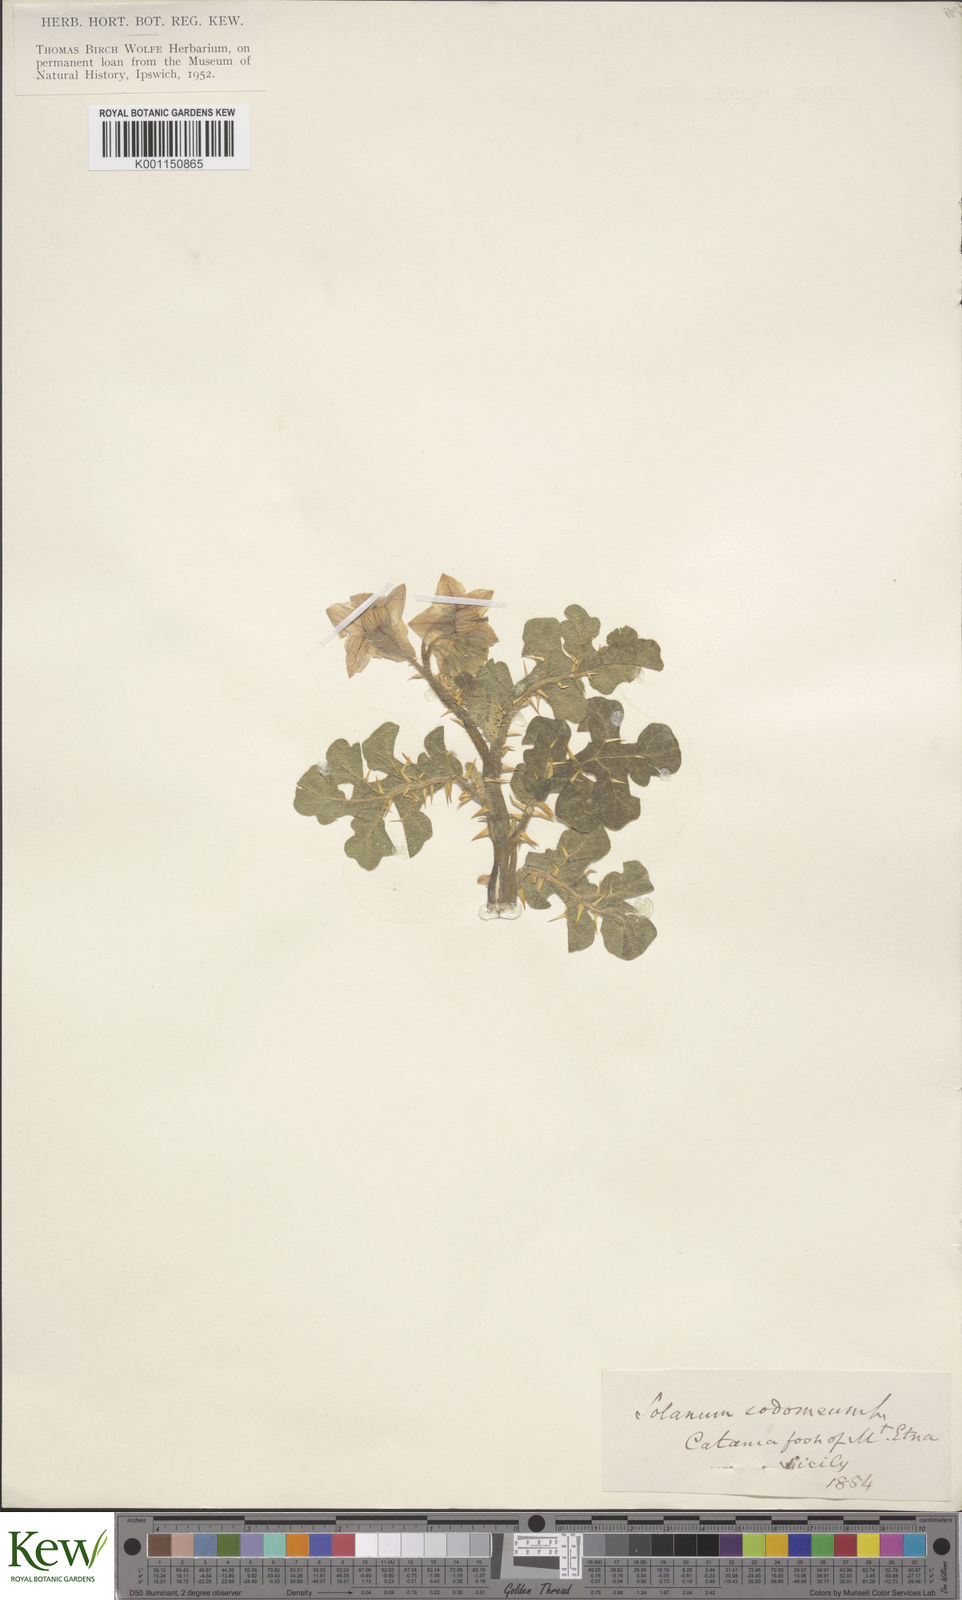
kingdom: Plantae
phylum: Tracheophyta
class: Magnoliopsida
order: Solanales
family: Solanaceae
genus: Solanum
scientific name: Solanum anguivi
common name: Forest bitterberry
